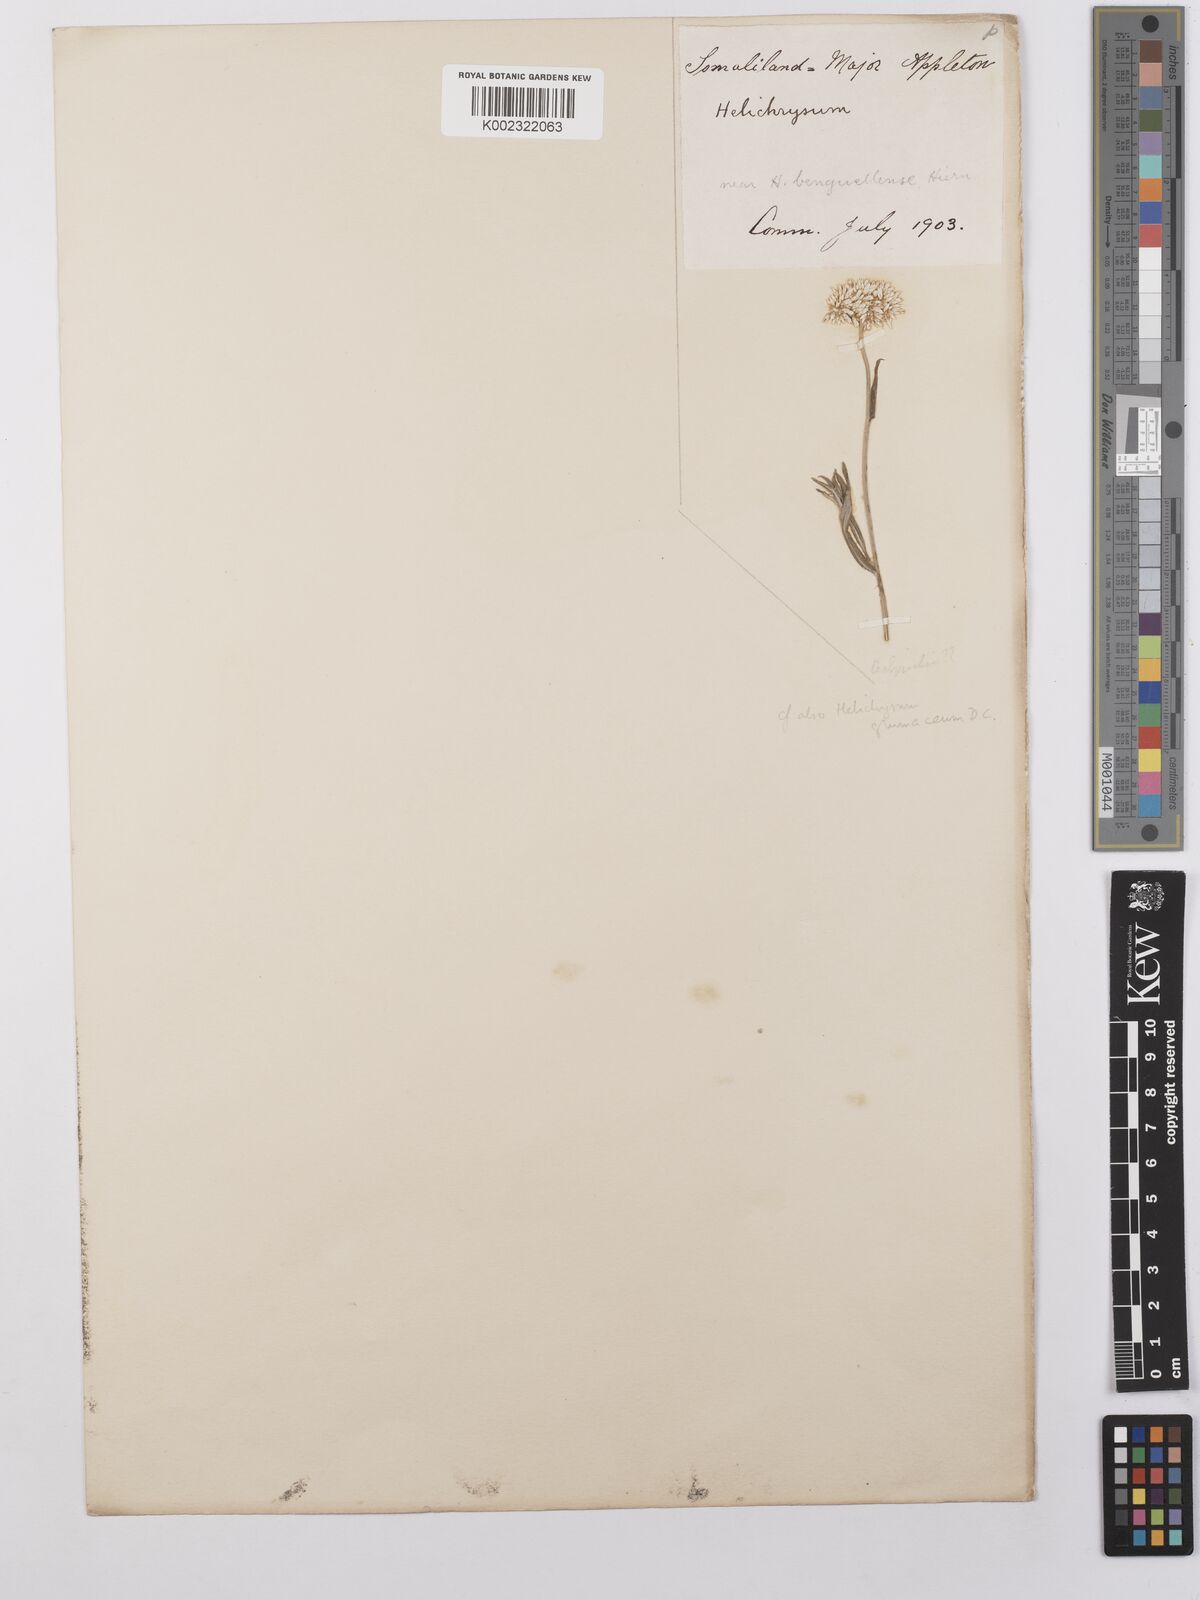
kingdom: Plantae
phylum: Tracheophyta
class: Magnoliopsida
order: Asterales
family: Asteraceae
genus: Helichrysum
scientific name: Helichrysum glumaceum
